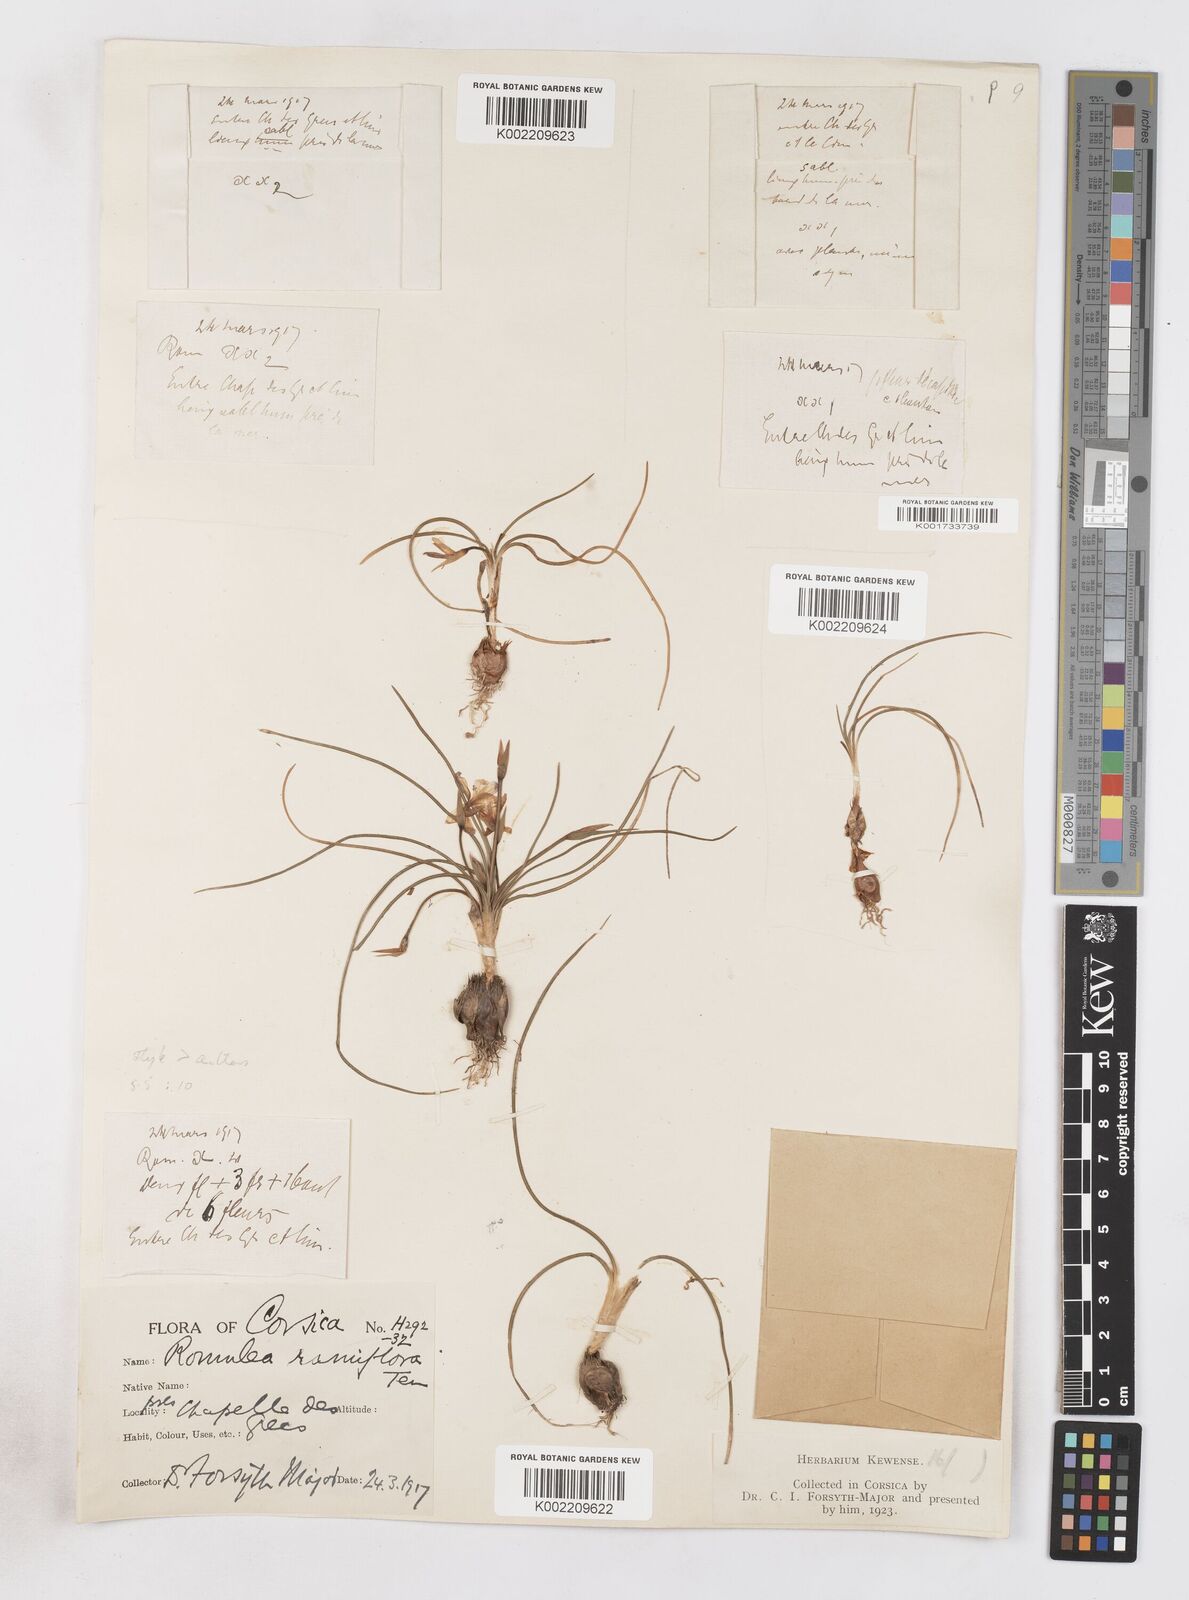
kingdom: Plantae
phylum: Tracheophyta
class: Liliopsida
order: Asparagales
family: Iridaceae
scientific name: Iridaceae
